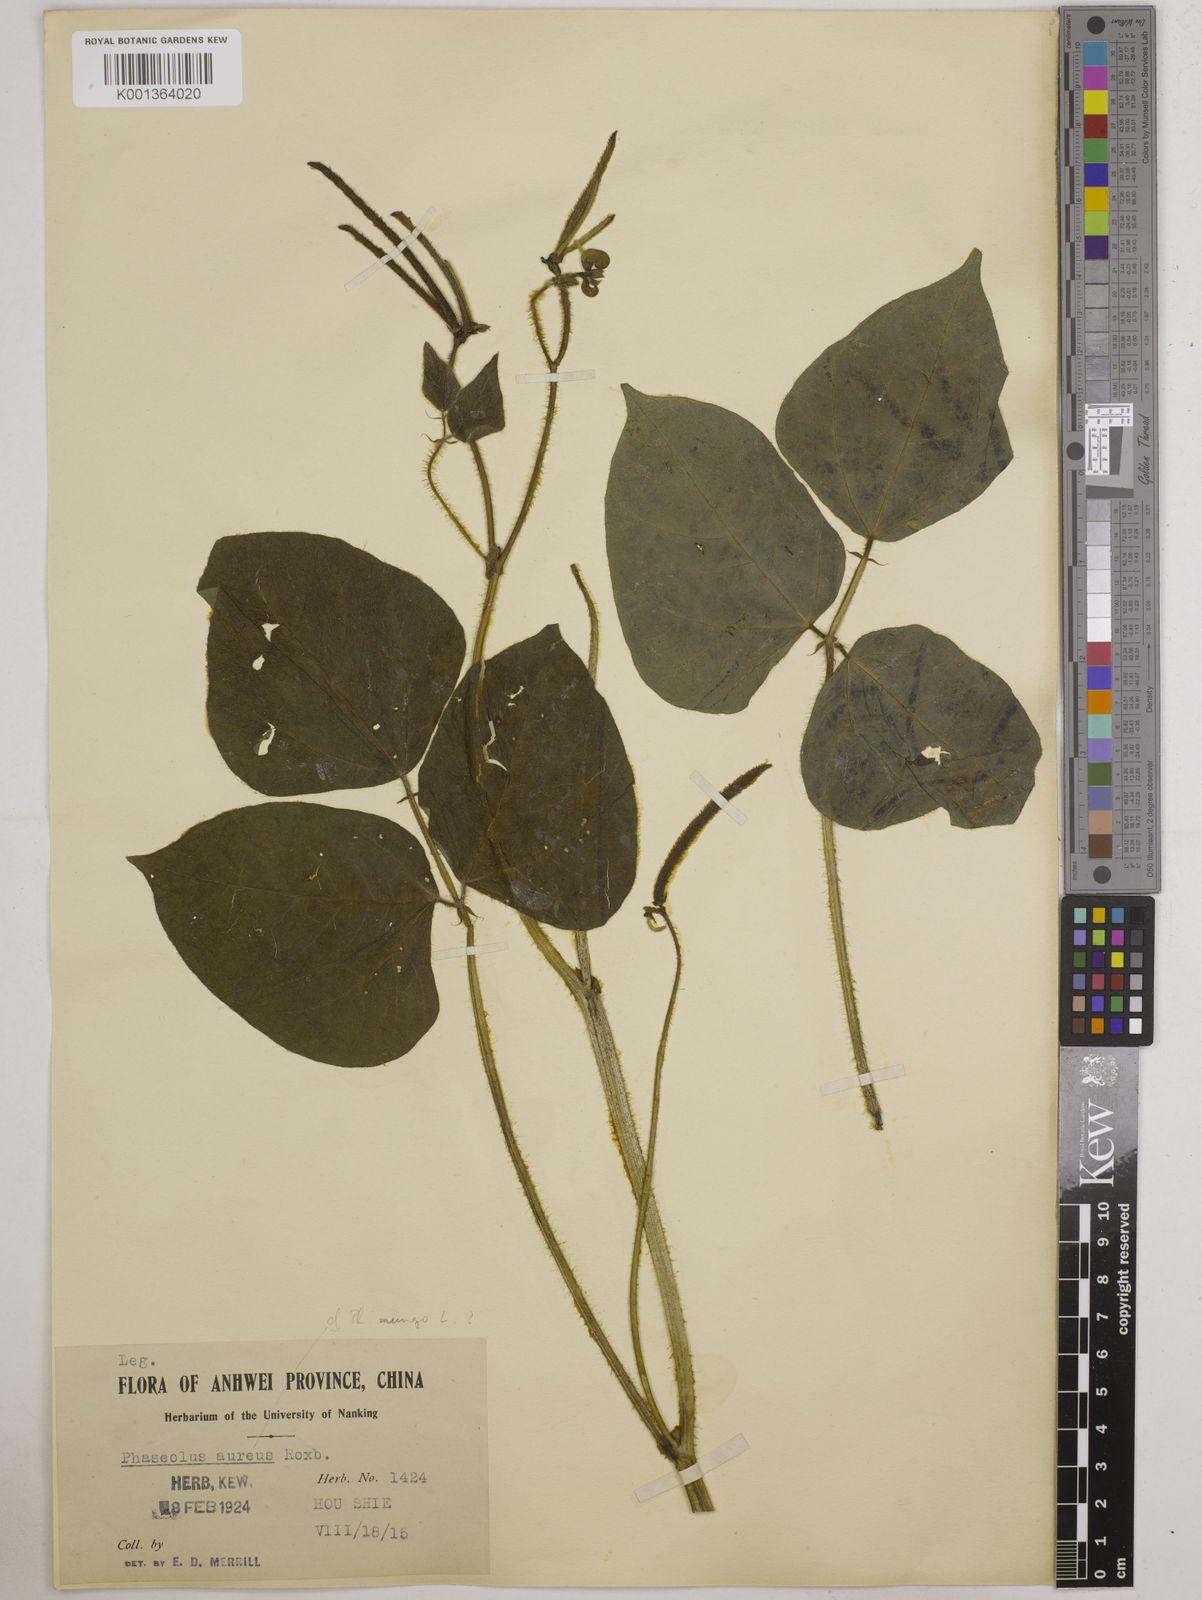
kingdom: Plantae
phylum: Tracheophyta
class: Magnoliopsida
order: Fabales
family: Fabaceae
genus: Vigna
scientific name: Vigna radiata
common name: Mung-bean
